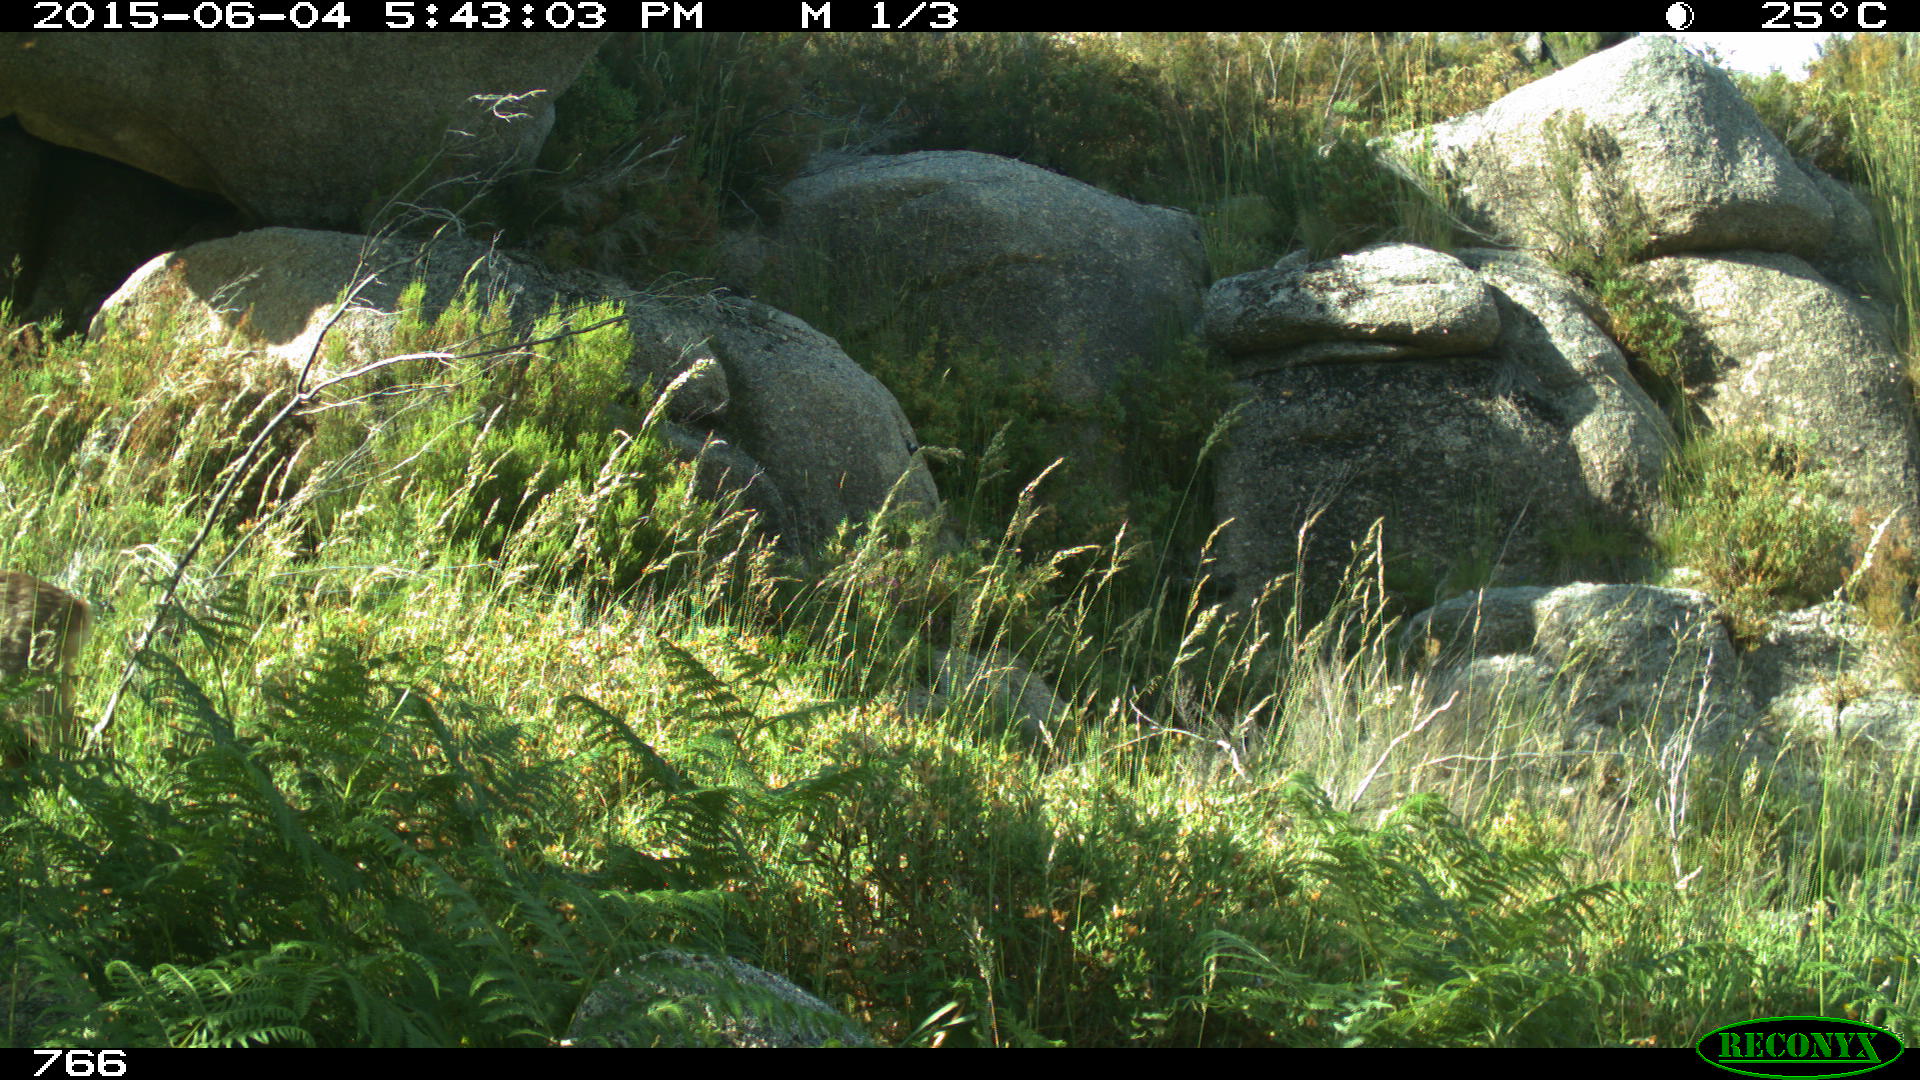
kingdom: Animalia
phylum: Chordata
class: Mammalia
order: Artiodactyla
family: Suidae
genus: Sus
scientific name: Sus scrofa
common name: Wild boar
